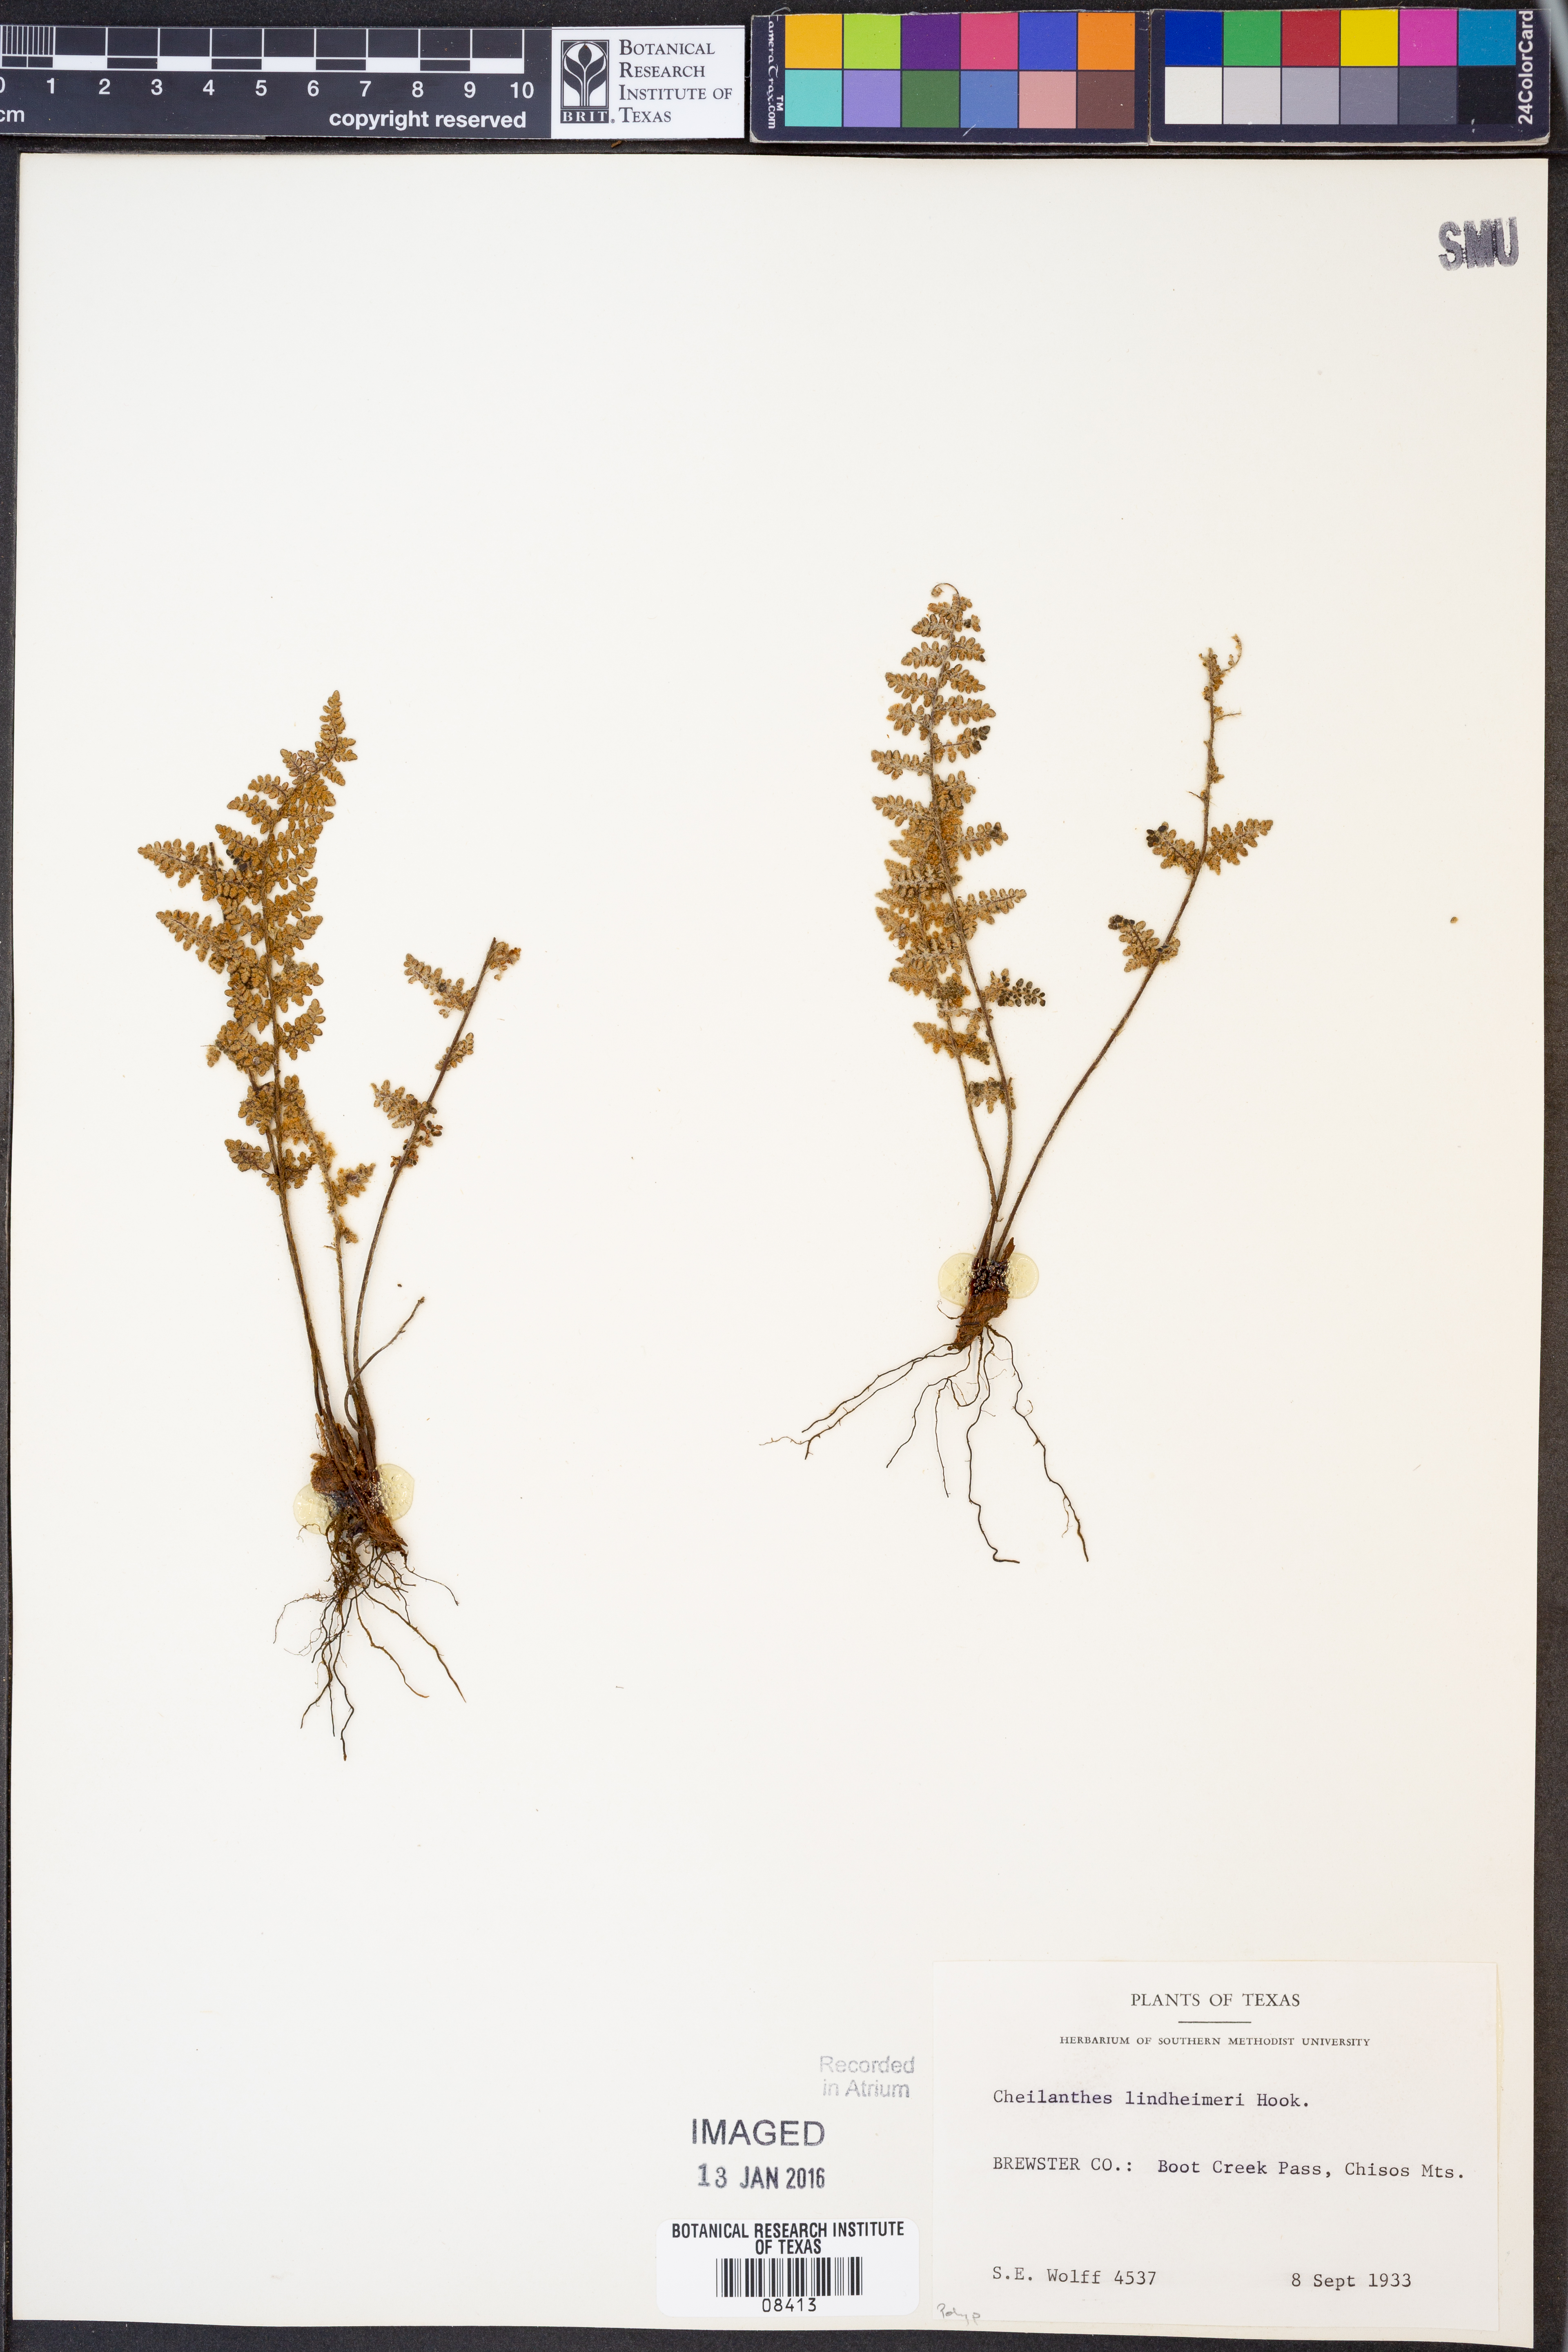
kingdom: Plantae
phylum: Tracheophyta
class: Polypodiopsida
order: Polypodiales
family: Pteridaceae
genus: Myriopteris
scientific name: Myriopteris lindheimeri
